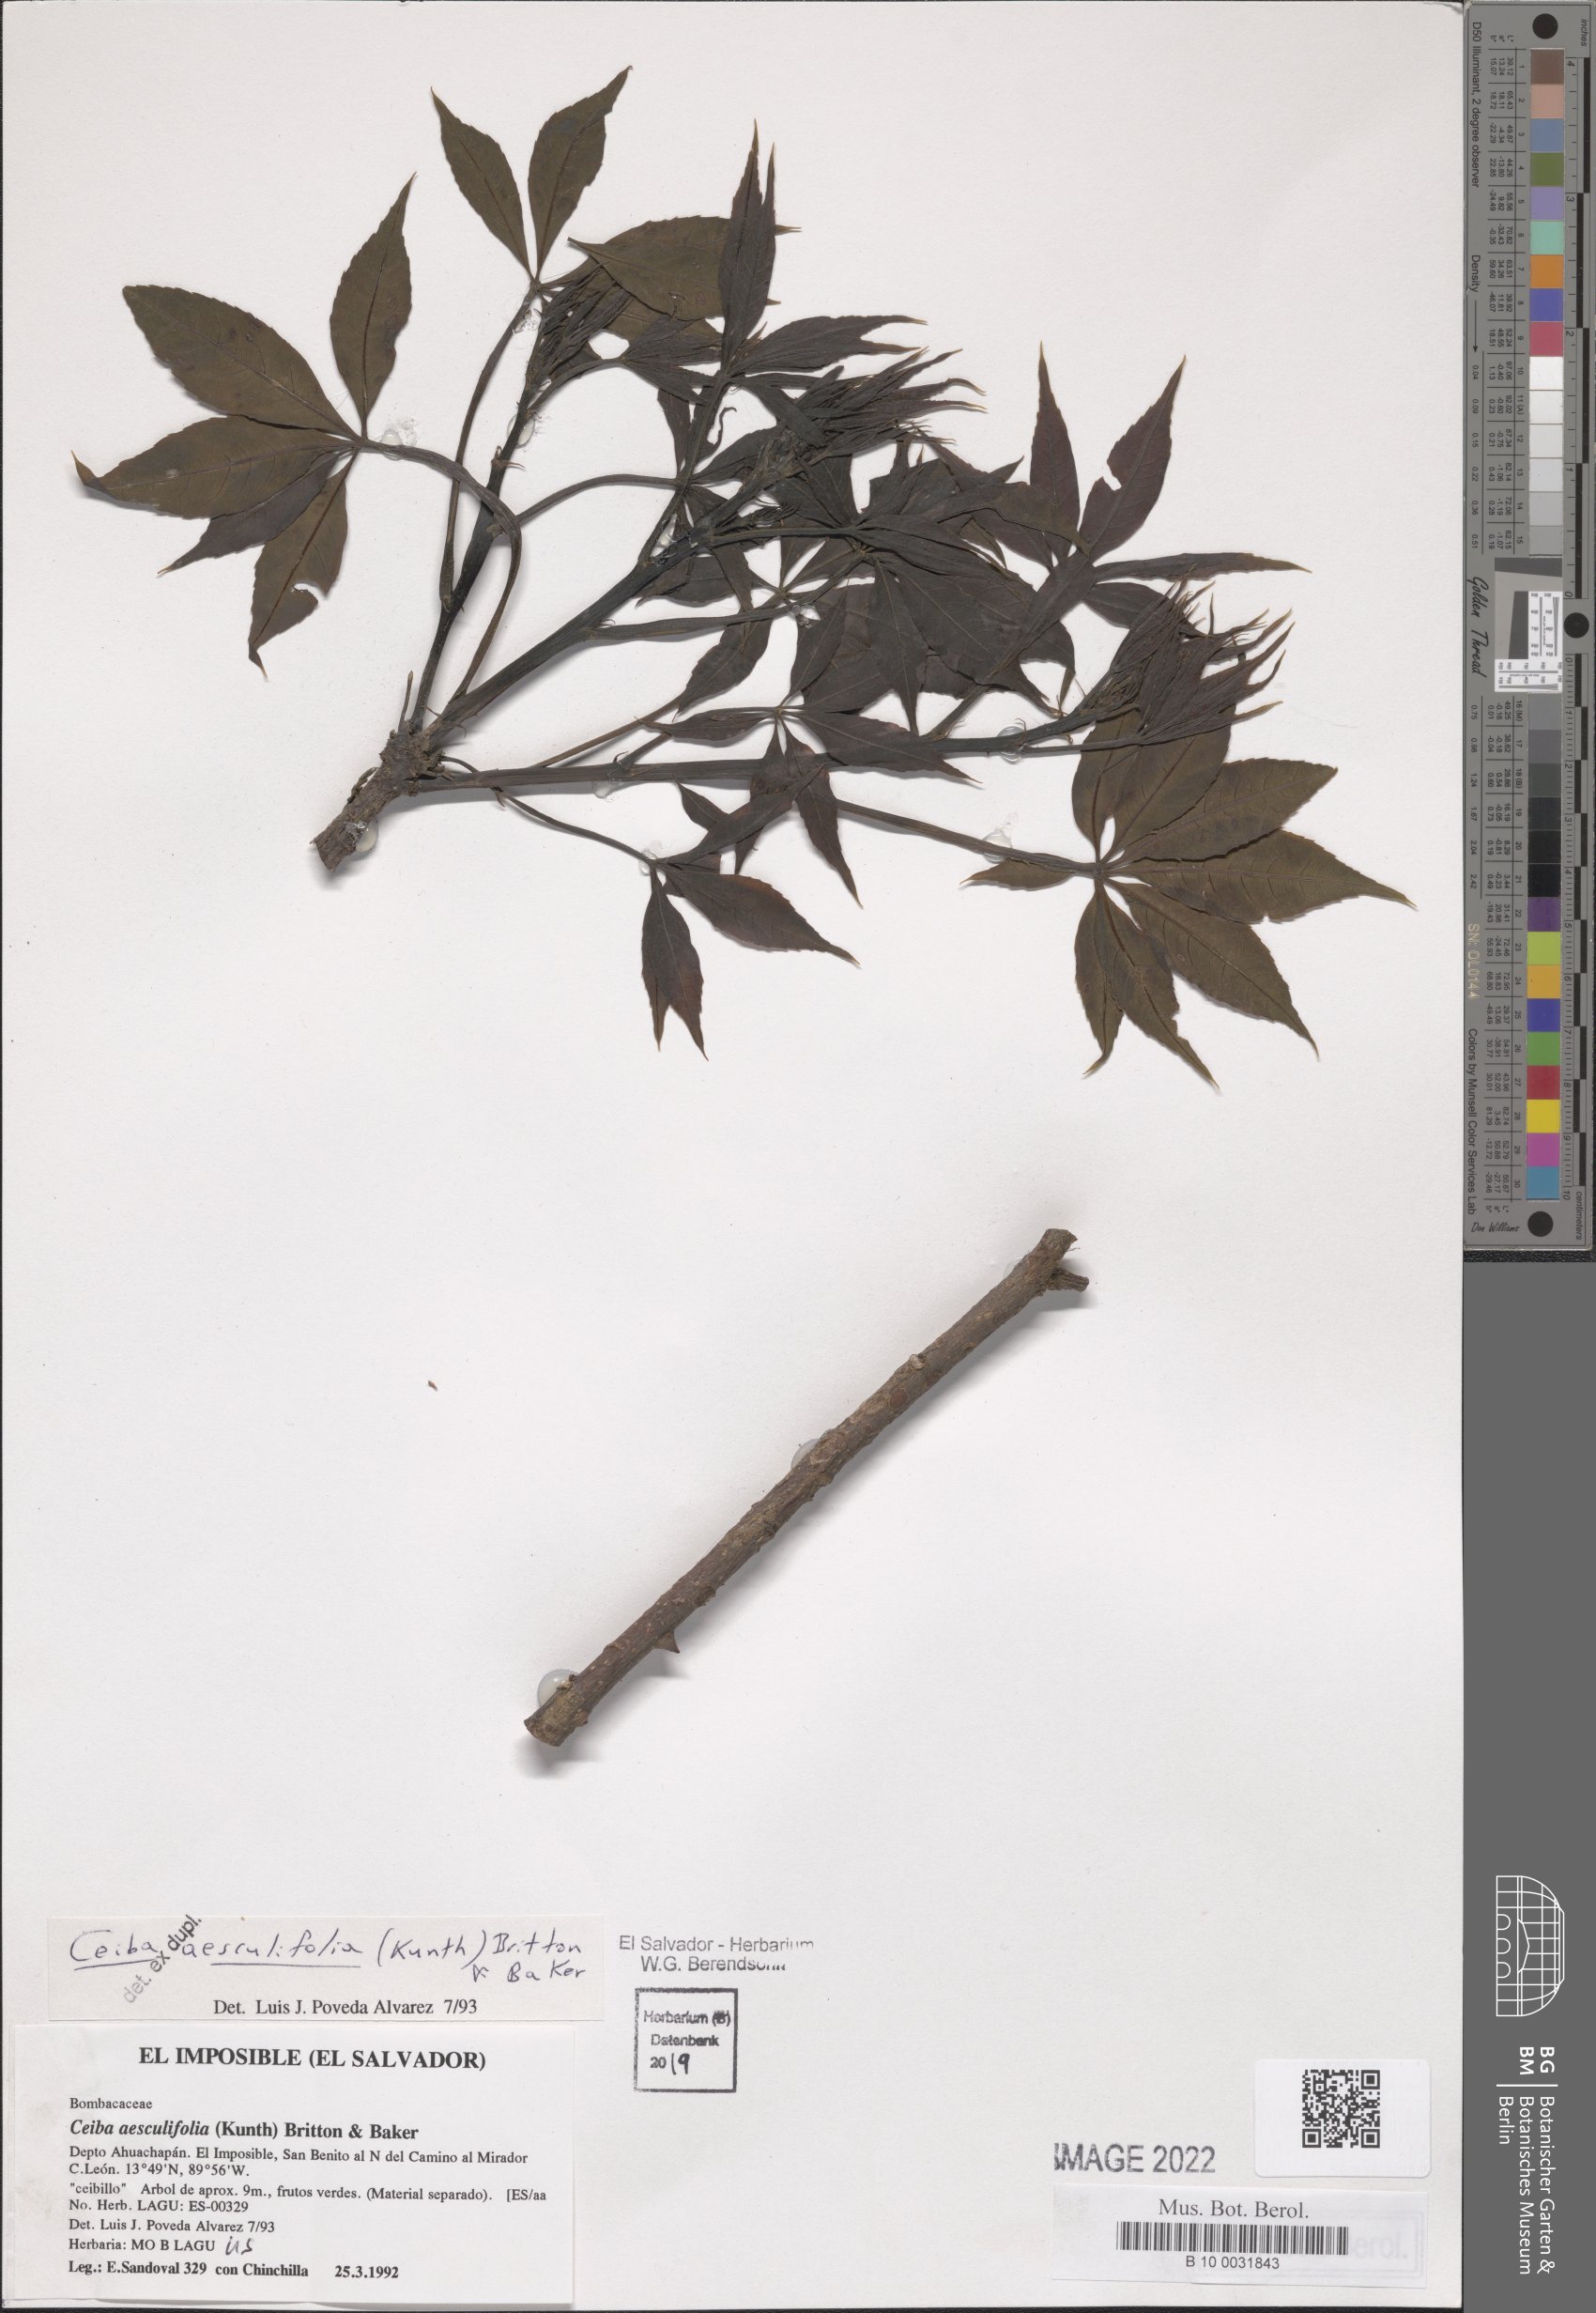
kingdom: Plantae
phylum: Tracheophyta
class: Magnoliopsida
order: Malvales
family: Malvaceae
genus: Ceiba
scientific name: Ceiba aesculifolia
